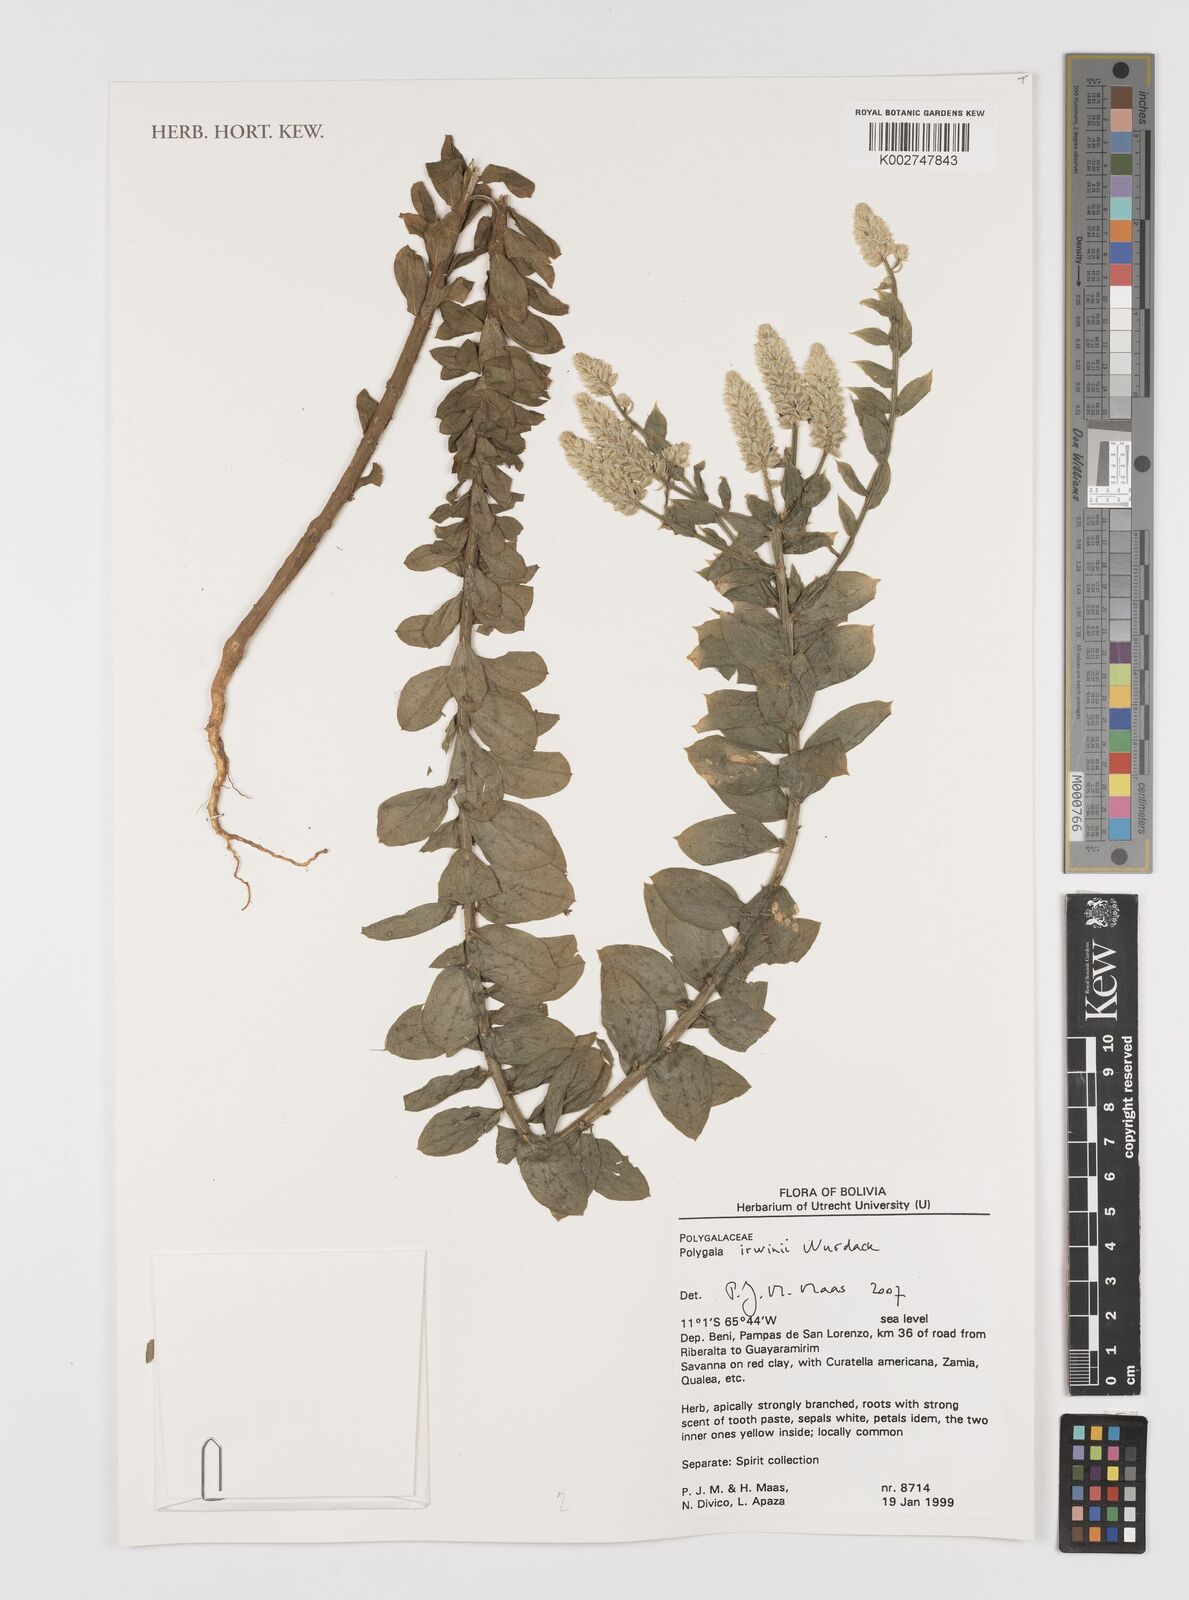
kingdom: Plantae
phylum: Tracheophyta
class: Magnoliopsida
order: Fabales
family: Polygalaceae
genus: Polygala
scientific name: Polygala irwinii
